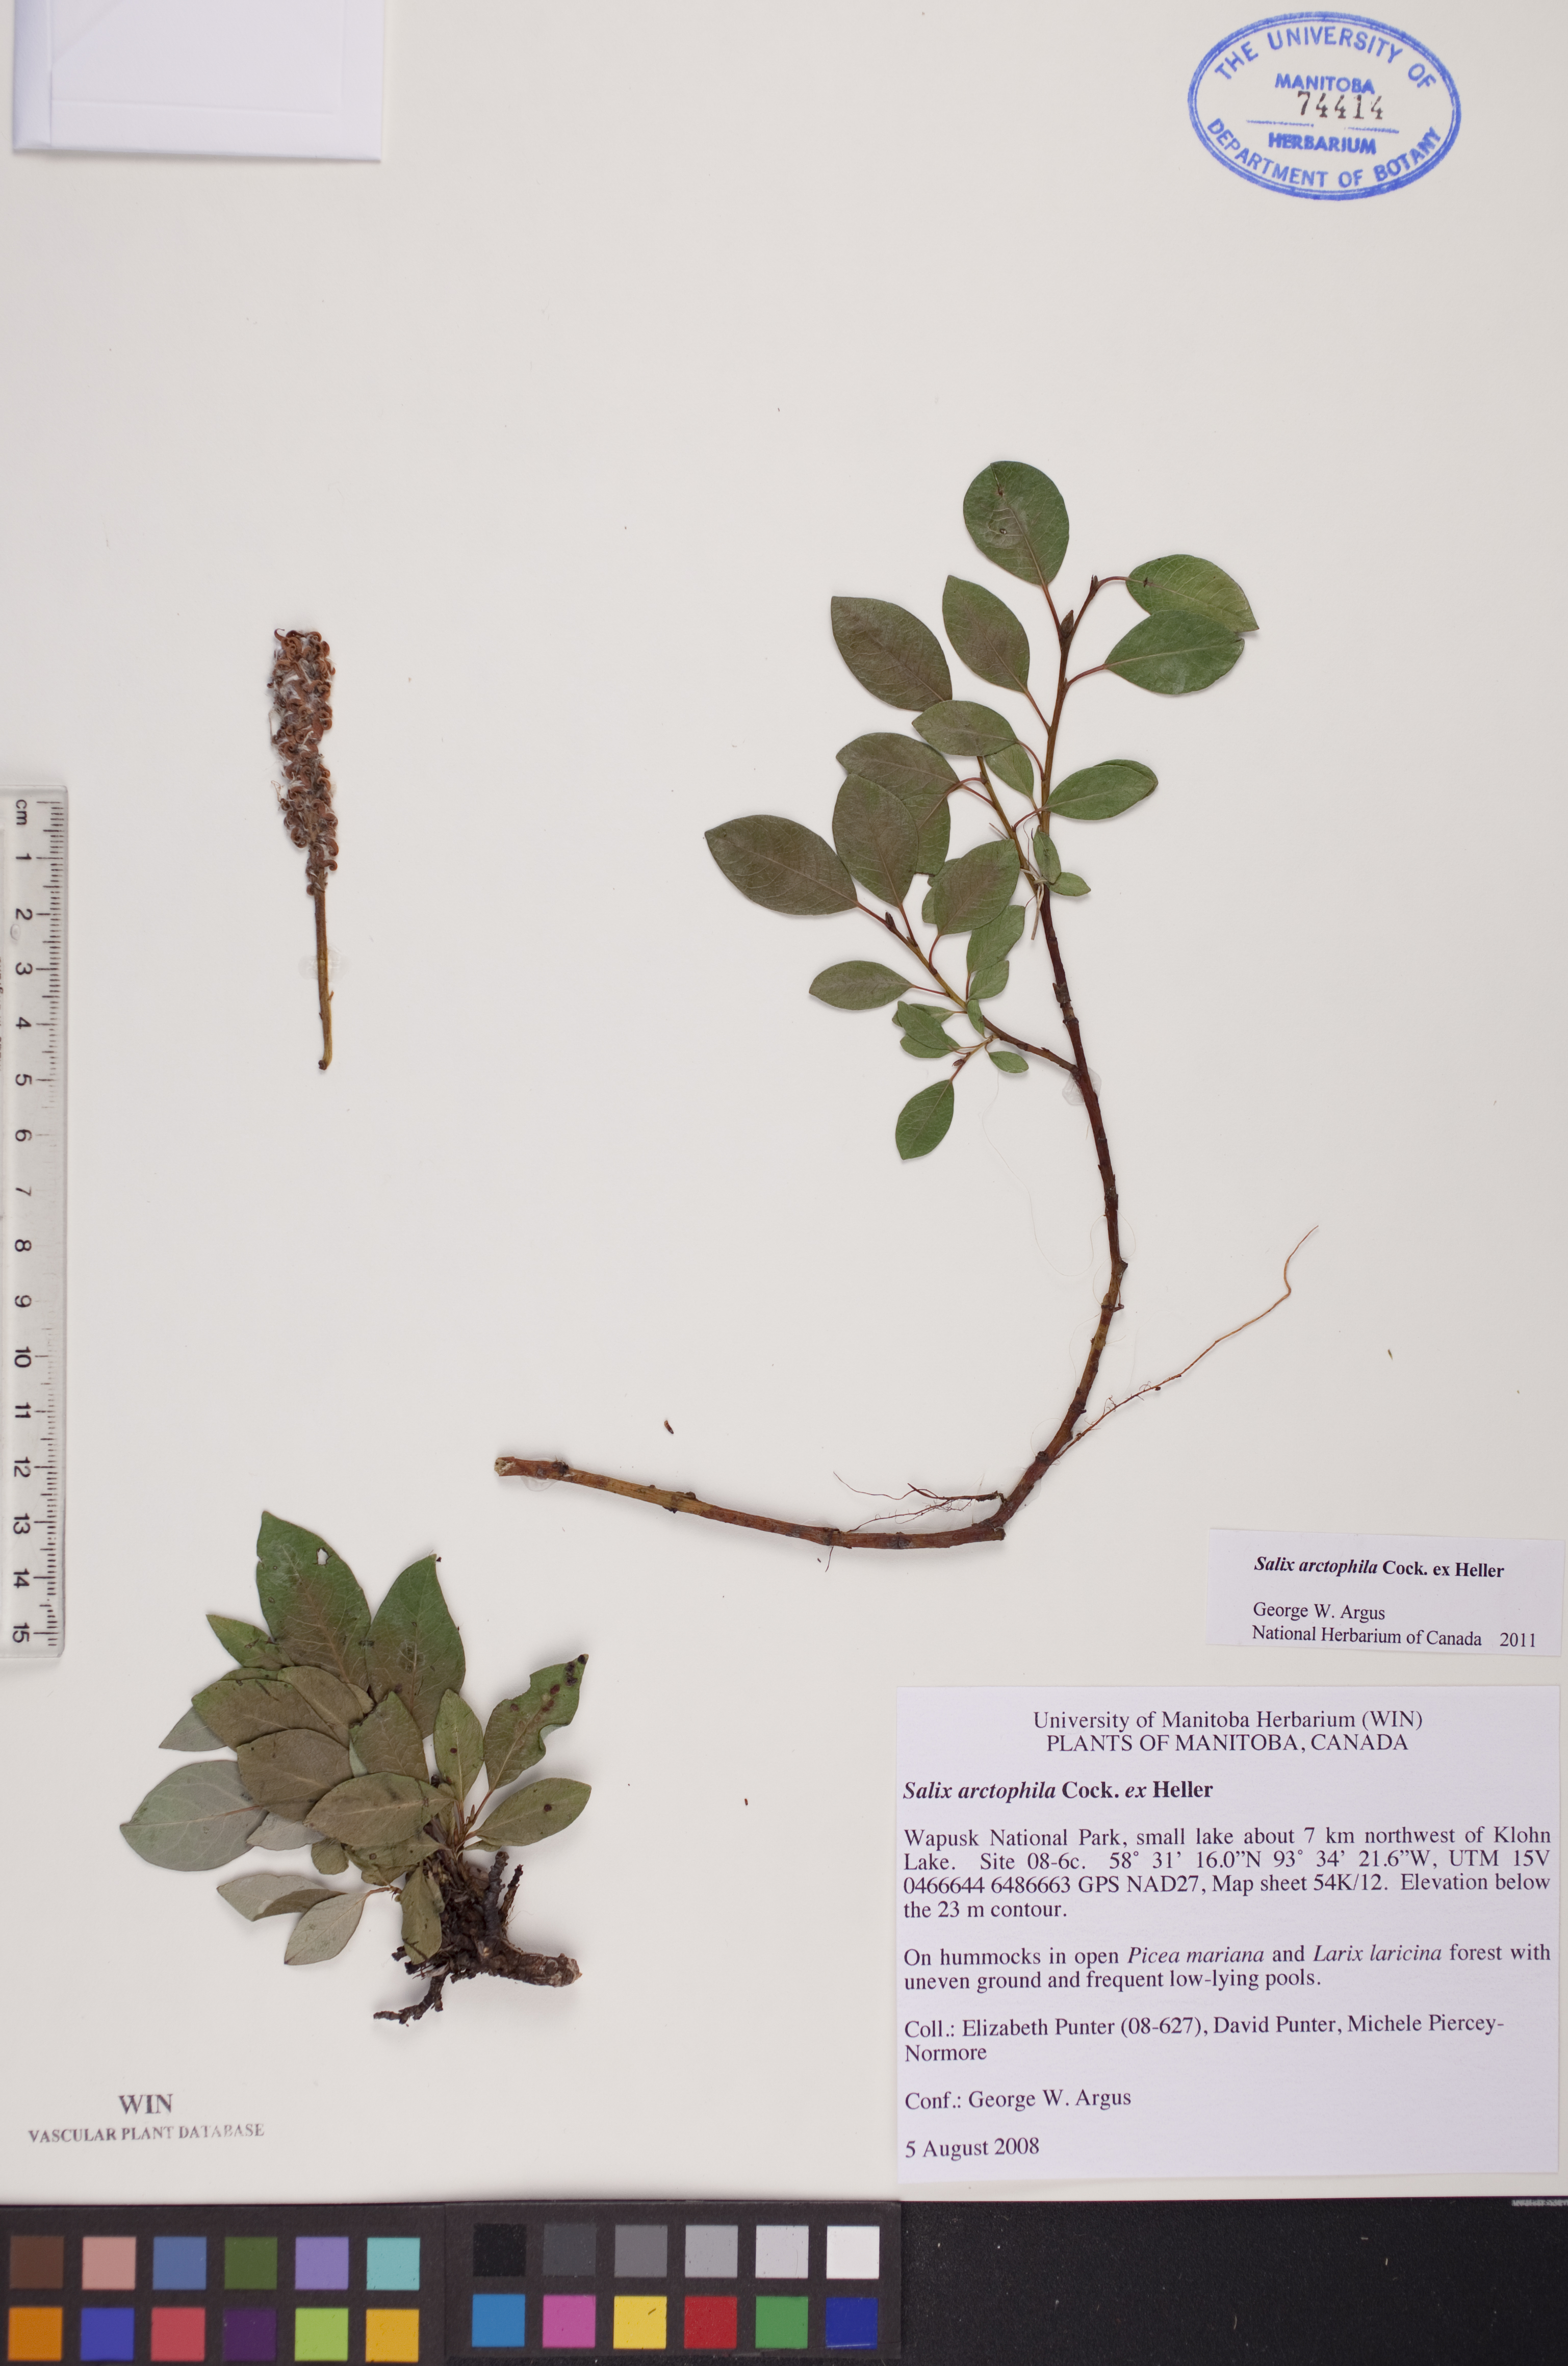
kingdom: Plantae
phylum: Tracheophyta
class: Magnoliopsida
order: Malpighiales
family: Salicaceae
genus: Salix
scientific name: Salix arctophila
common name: Greenland willow
